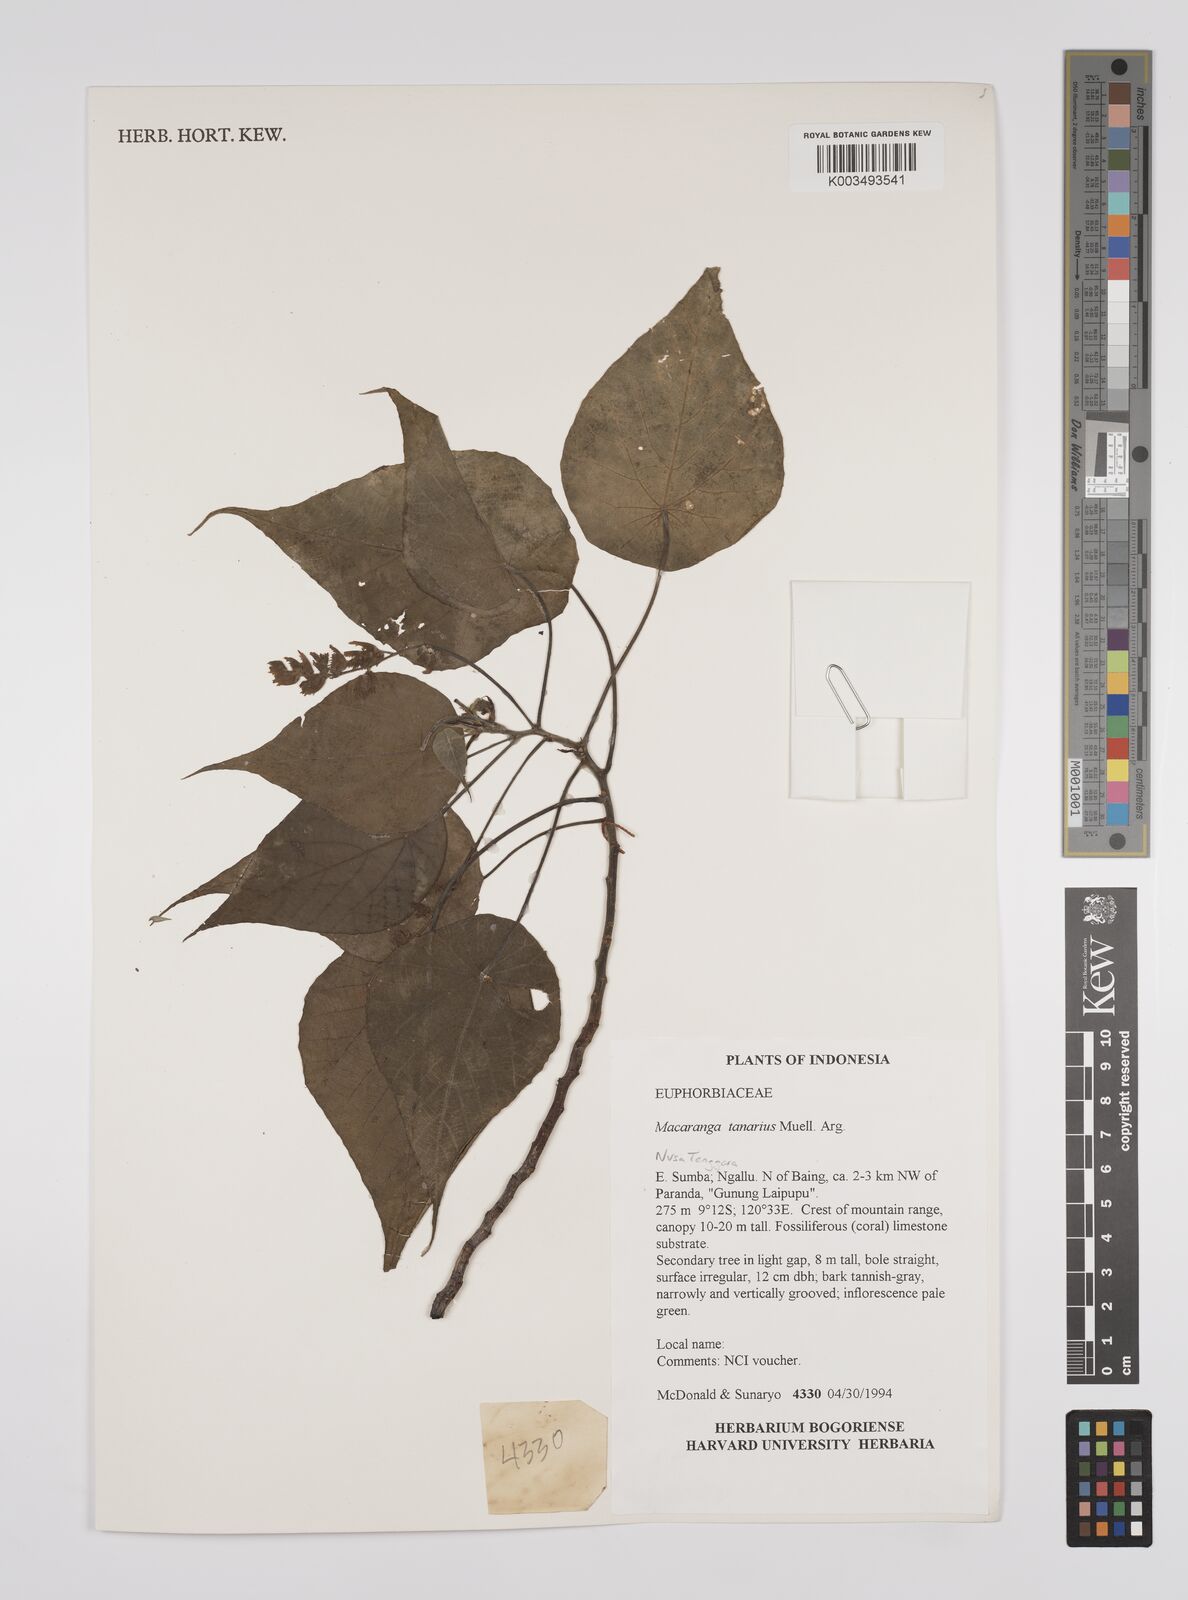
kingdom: Plantae
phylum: Tracheophyta
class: Magnoliopsida
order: Malpighiales
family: Euphorbiaceae
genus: Macaranga
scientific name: Macaranga tanarius
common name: Parasol leaf tree
